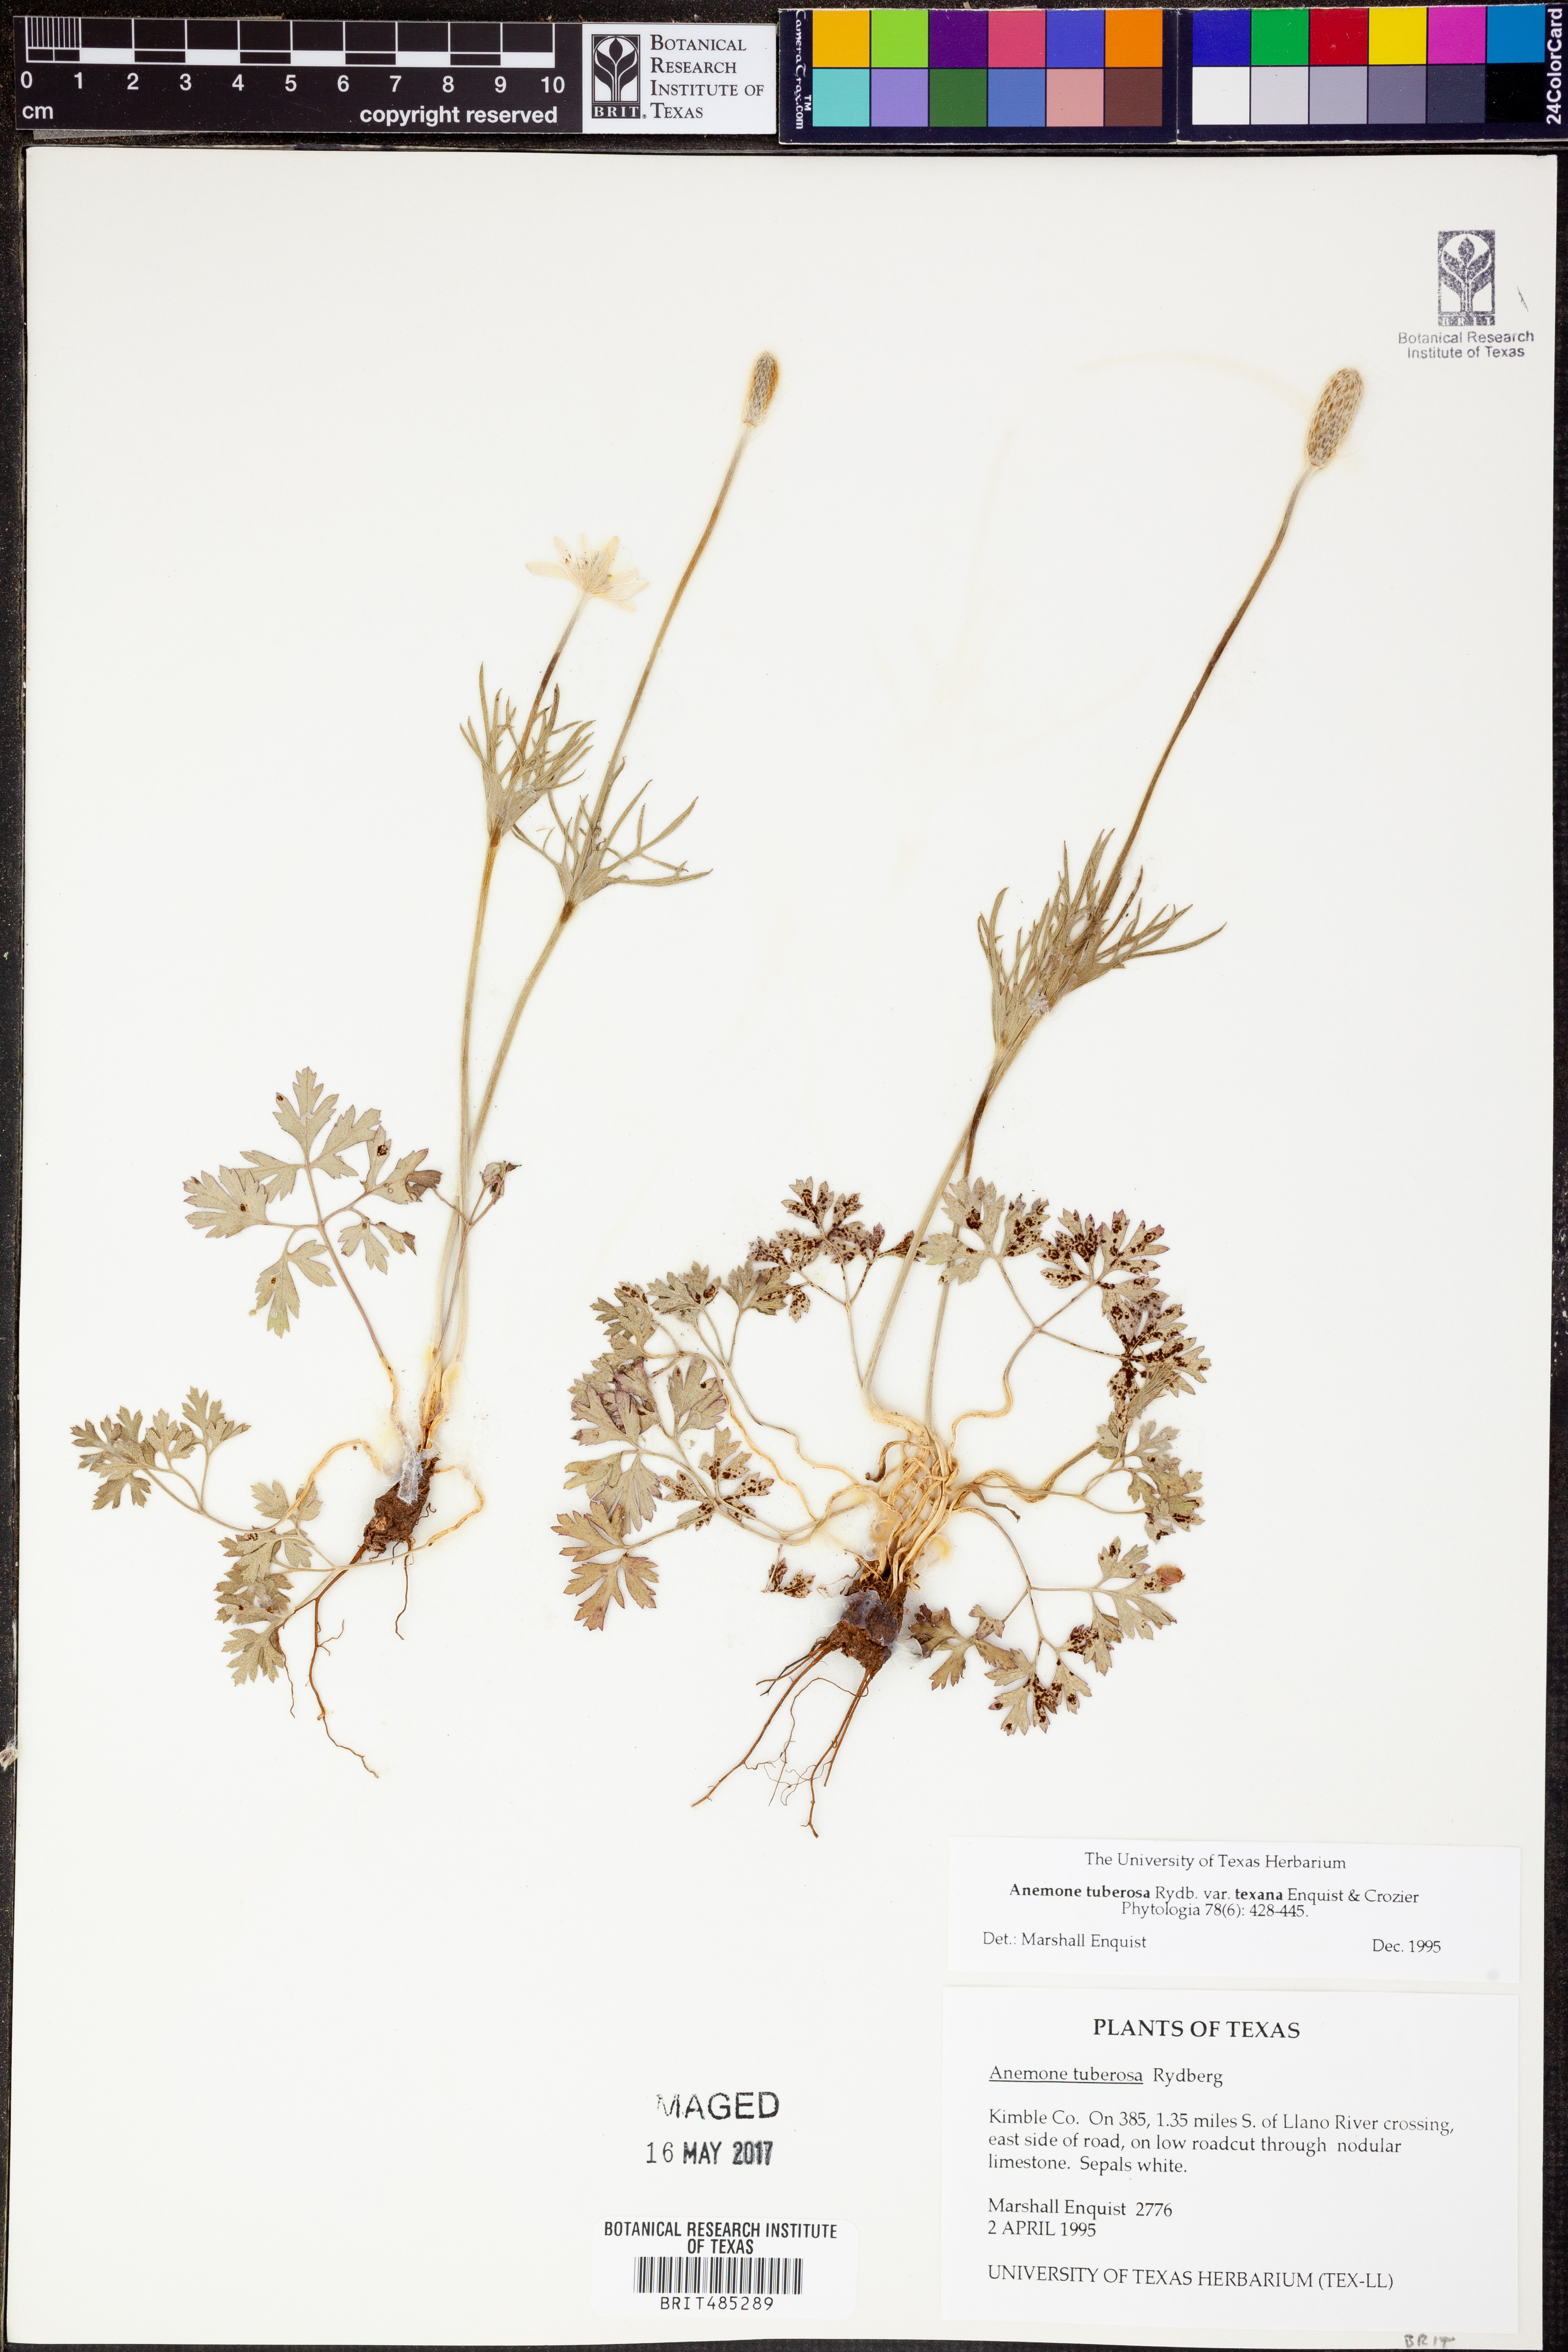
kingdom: Plantae
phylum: Tracheophyta
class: Magnoliopsida
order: Ranunculales
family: Ranunculaceae
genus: Anemone
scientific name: Anemone tuberosa
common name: Desert anemone
